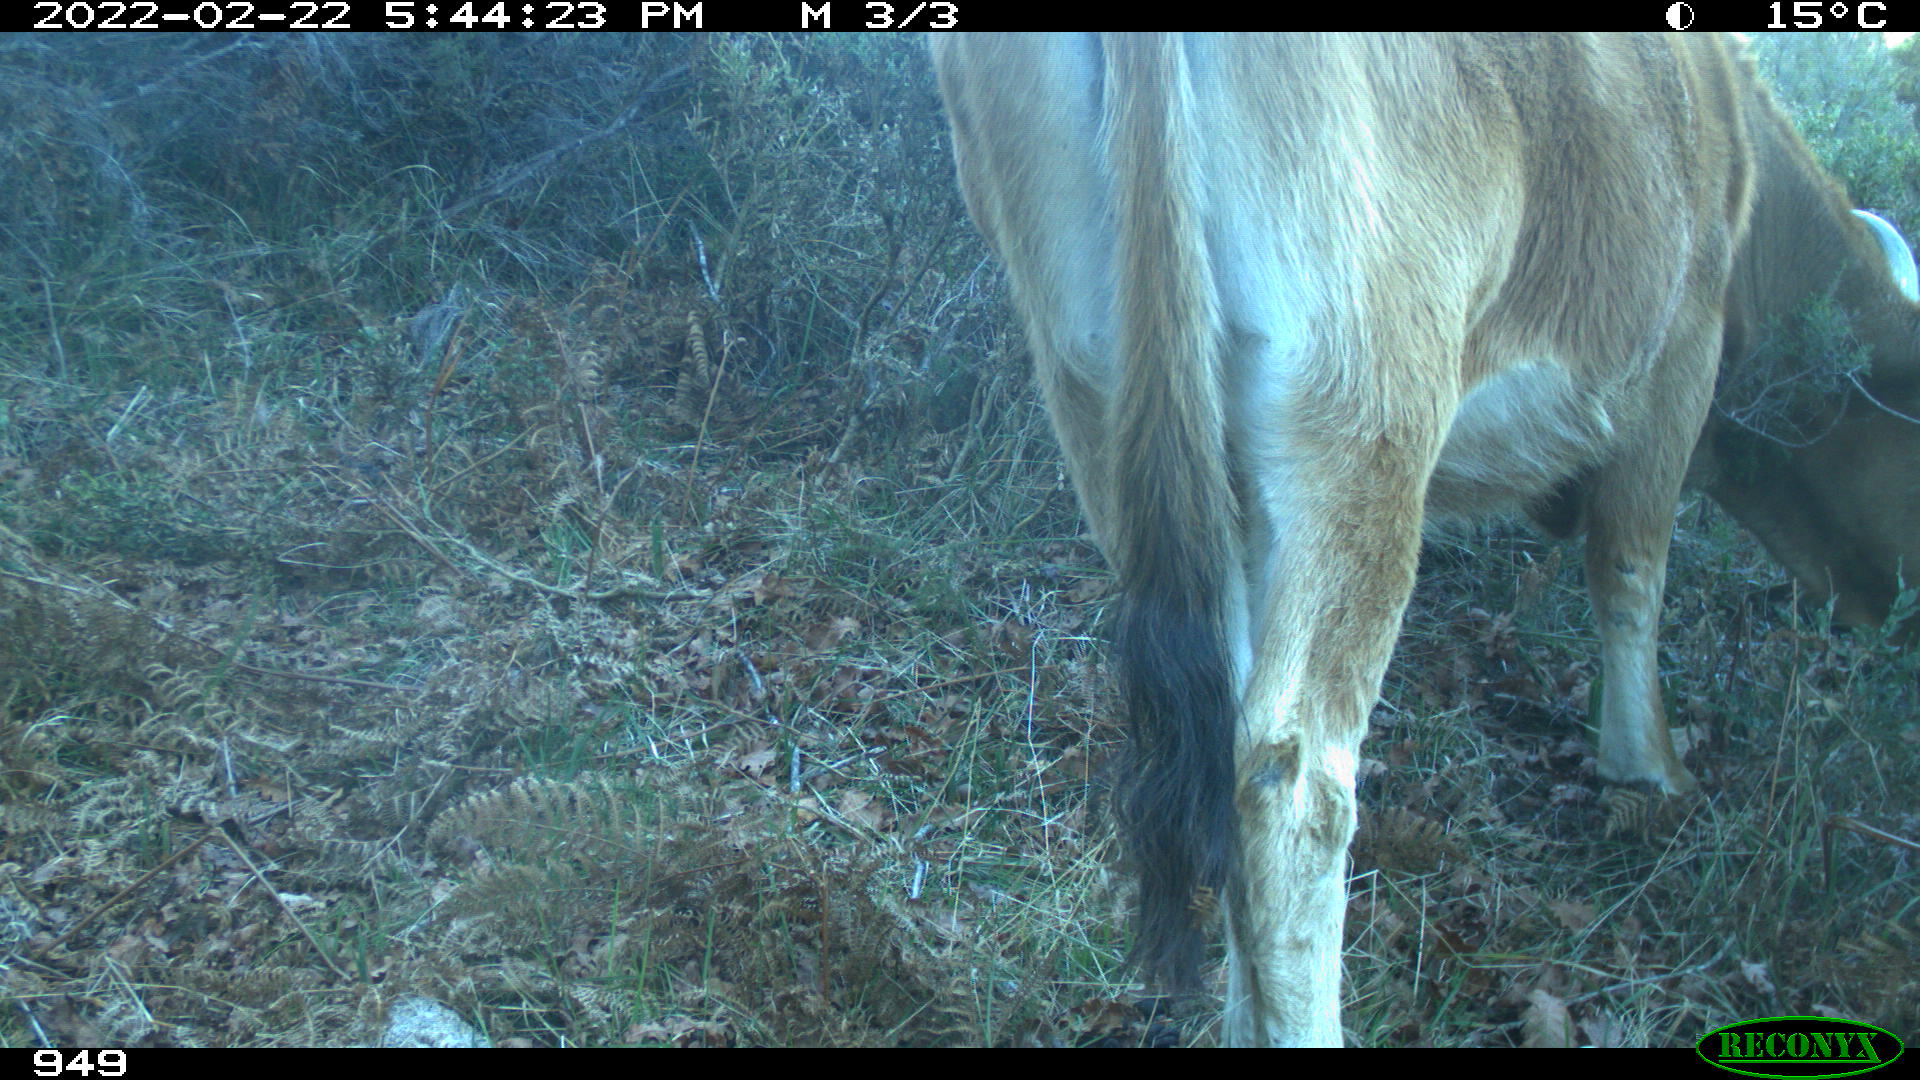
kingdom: Animalia
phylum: Chordata
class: Mammalia
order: Artiodactyla
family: Bovidae
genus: Bos
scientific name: Bos taurus
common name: Domesticated cattle
